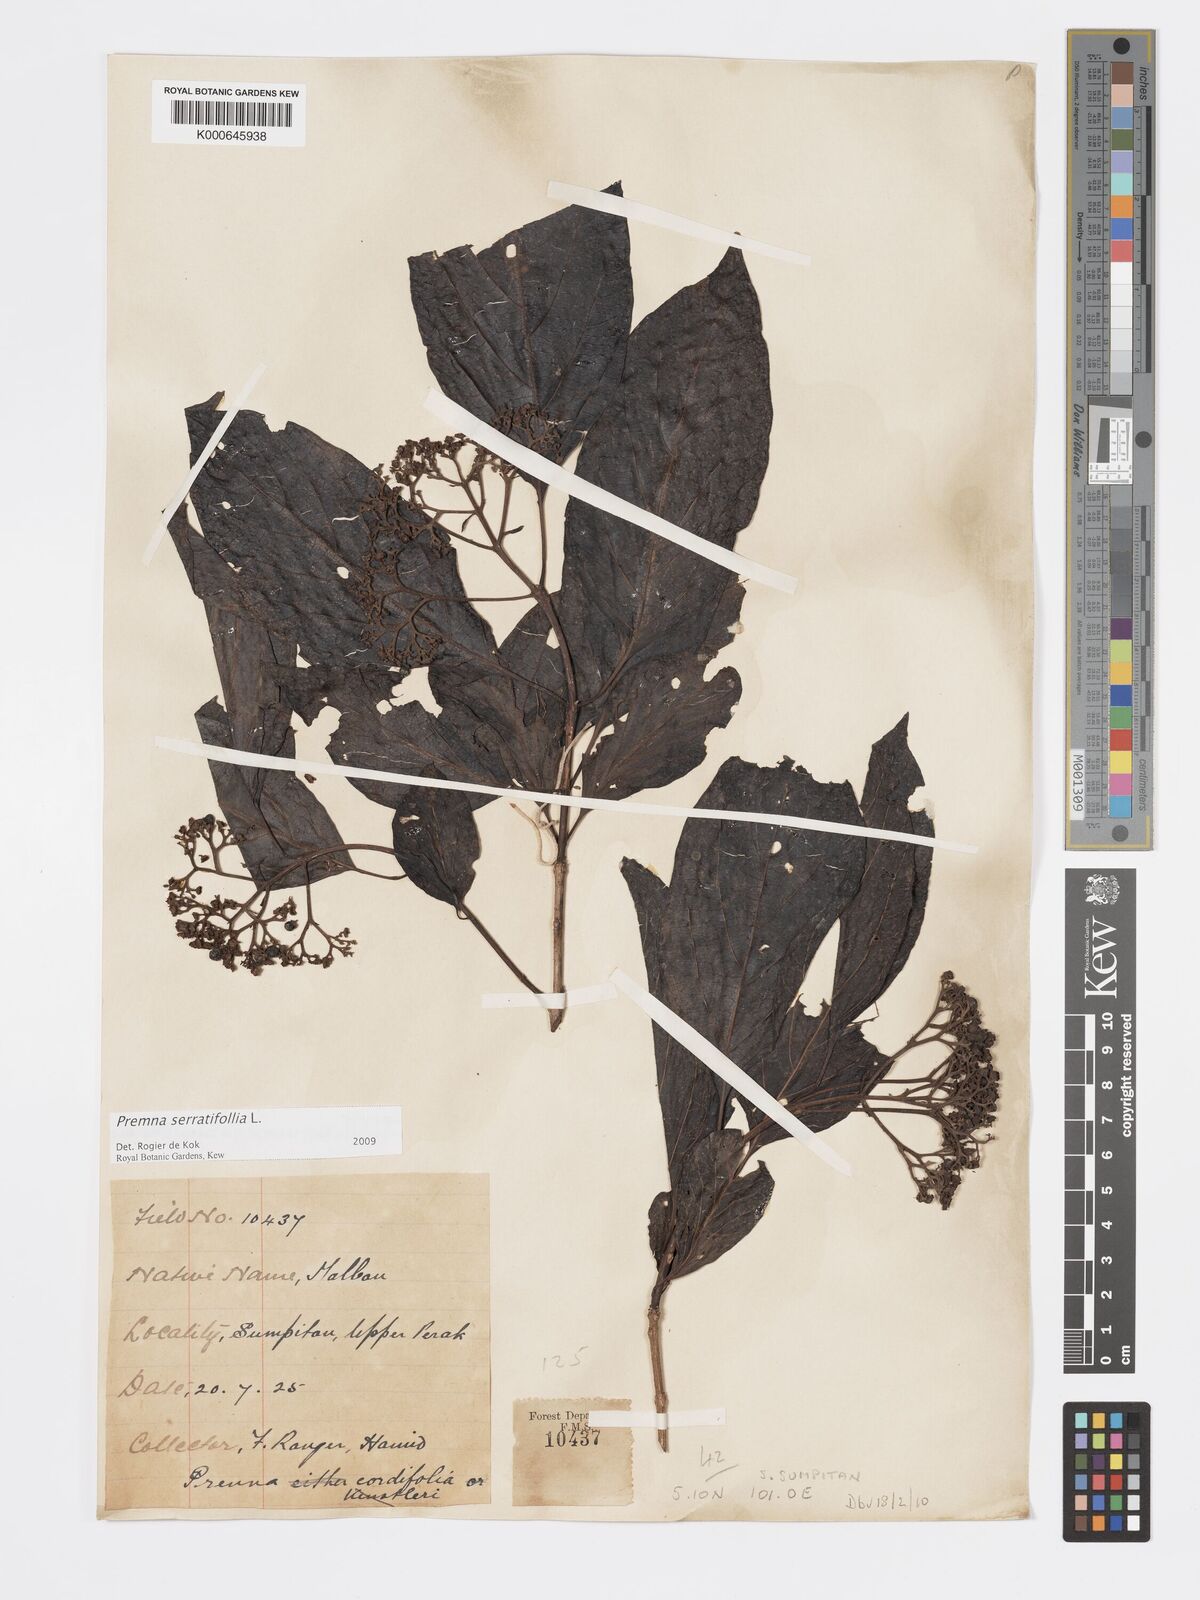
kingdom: Plantae
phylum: Tracheophyta
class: Magnoliopsida
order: Lamiales
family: Lamiaceae
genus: Premna
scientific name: Premna serratifolia
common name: Bastard guelder
